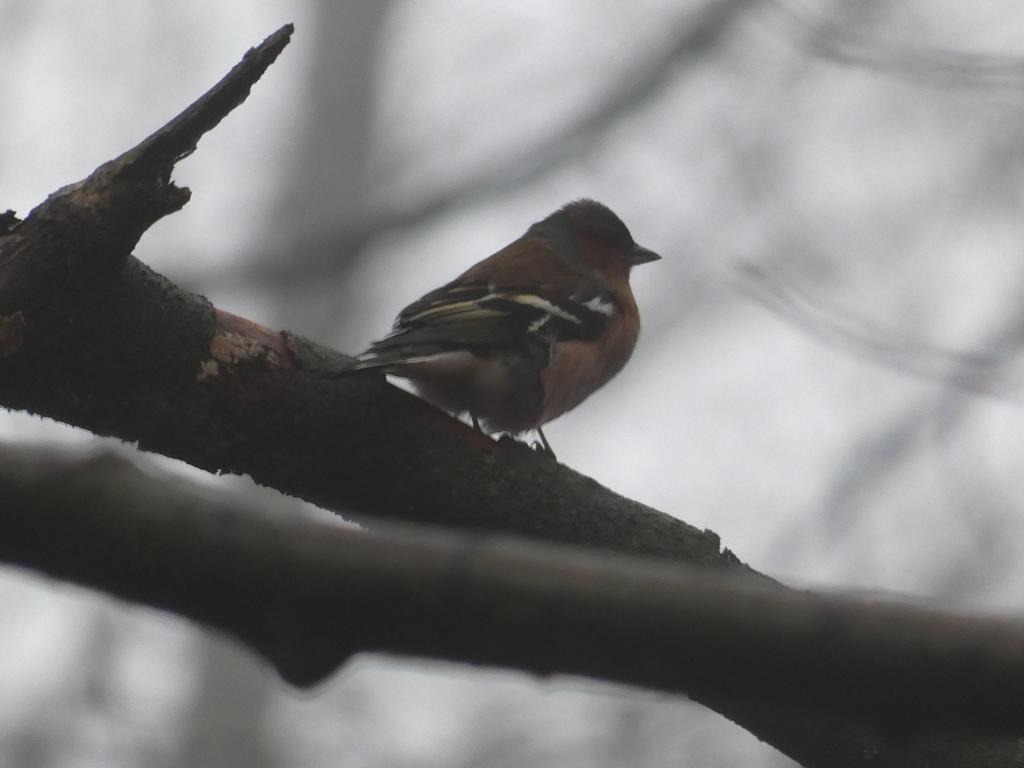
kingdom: Animalia
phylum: Chordata
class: Aves
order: Passeriformes
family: Fringillidae
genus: Fringilla
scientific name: Fringilla coelebs
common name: Bogfinke
